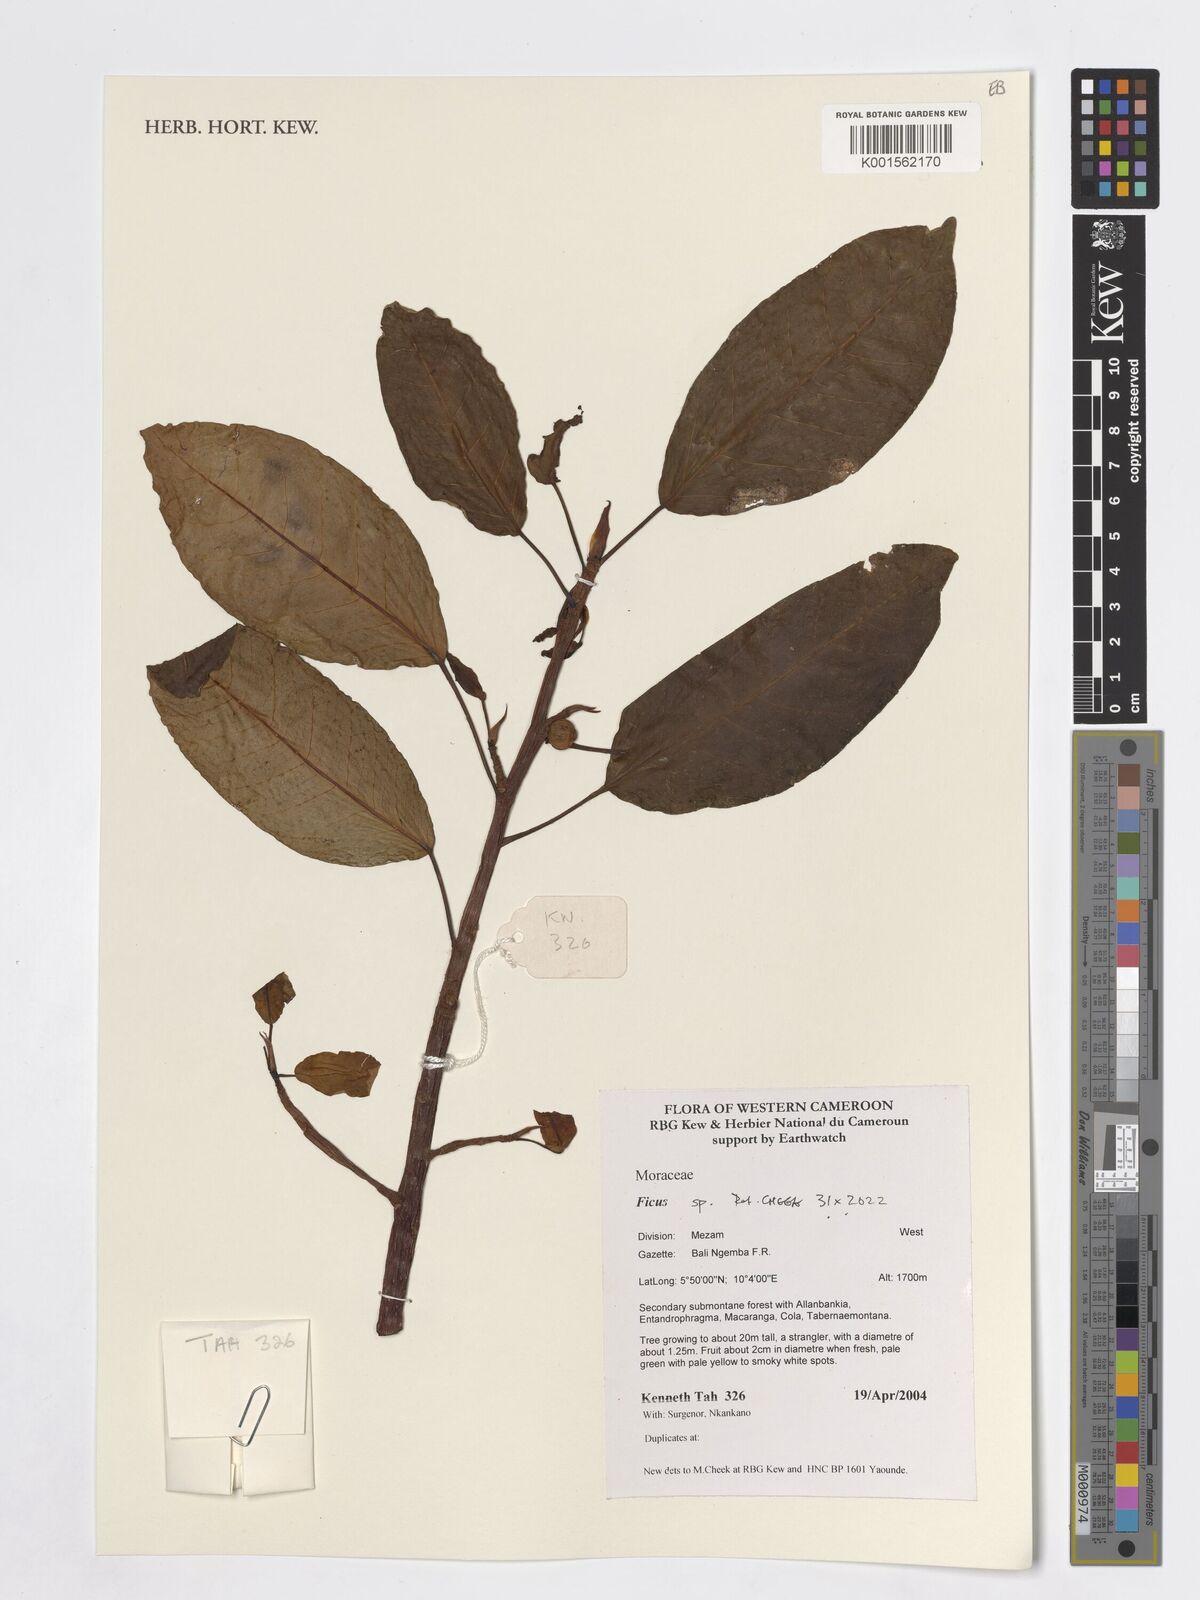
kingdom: Plantae
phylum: Tracheophyta
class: Magnoliopsida
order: Rosales
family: Moraceae
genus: Ficus
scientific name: Ficus
